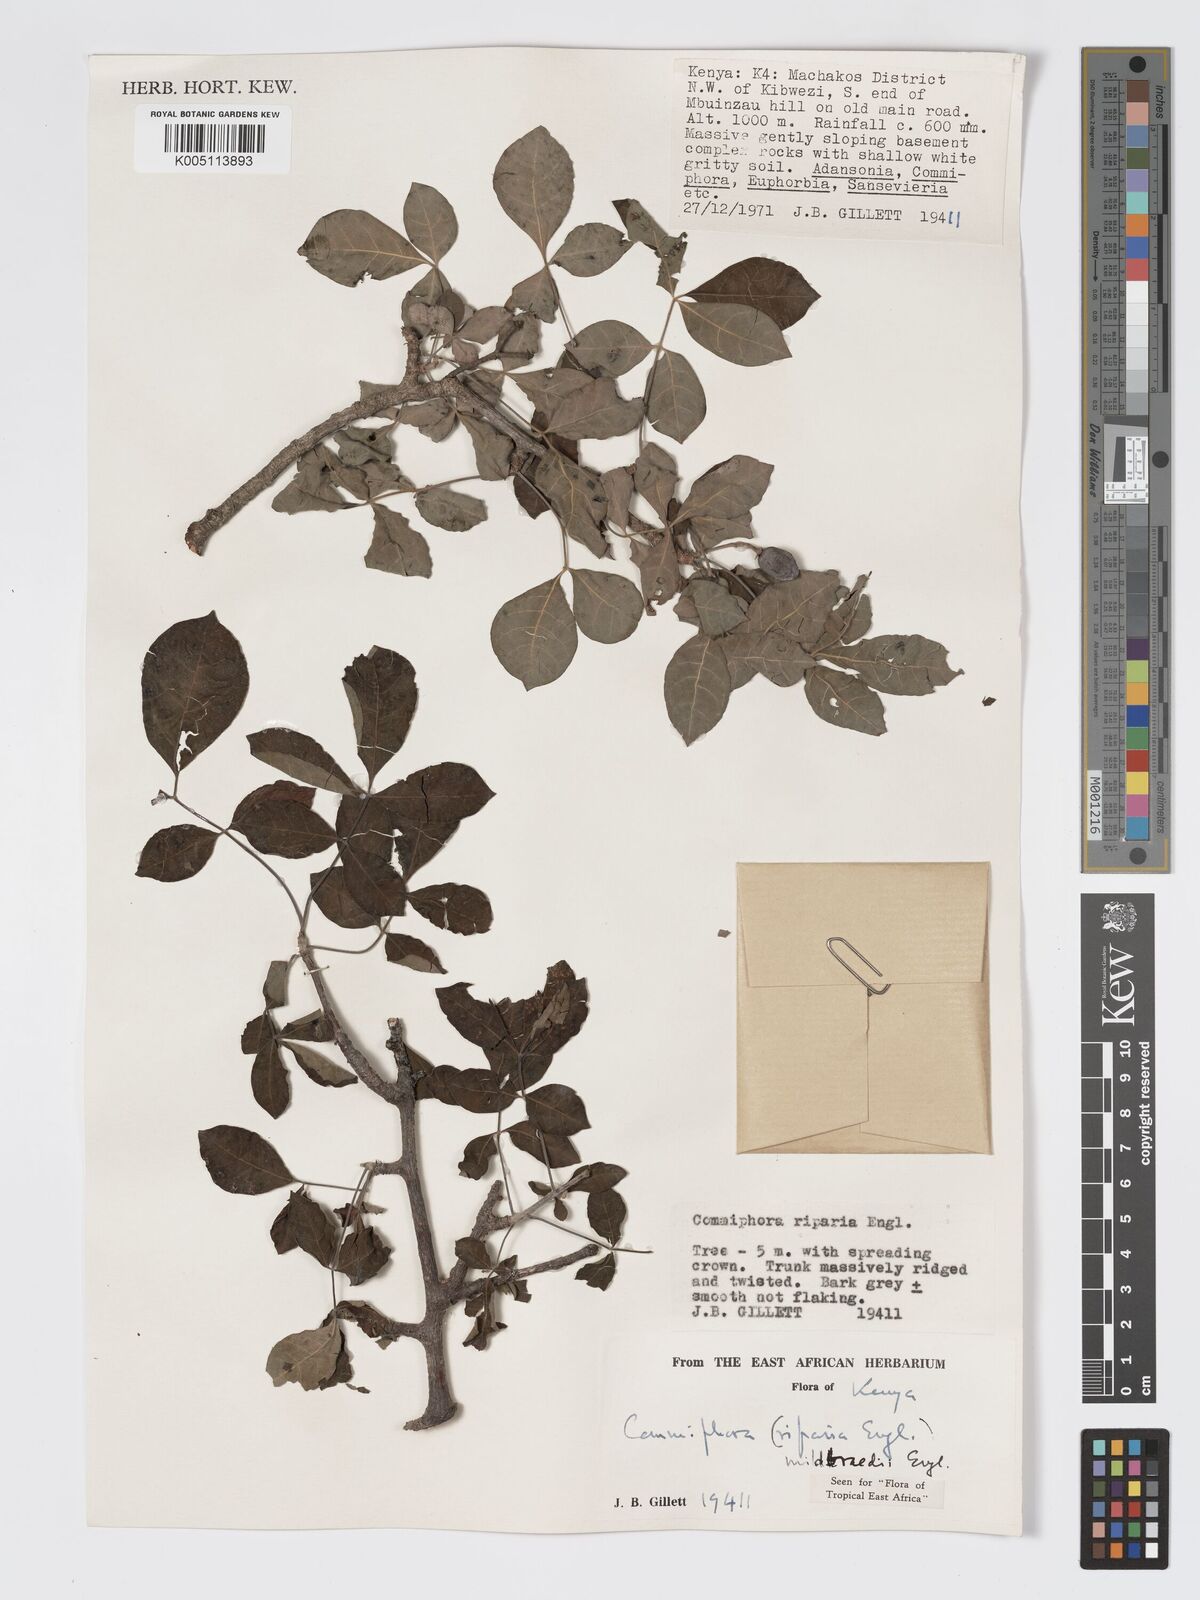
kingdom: Plantae
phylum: Tracheophyta
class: Magnoliopsida
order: Sapindales
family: Burseraceae
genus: Commiphora
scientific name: Commiphora mildbraedii
